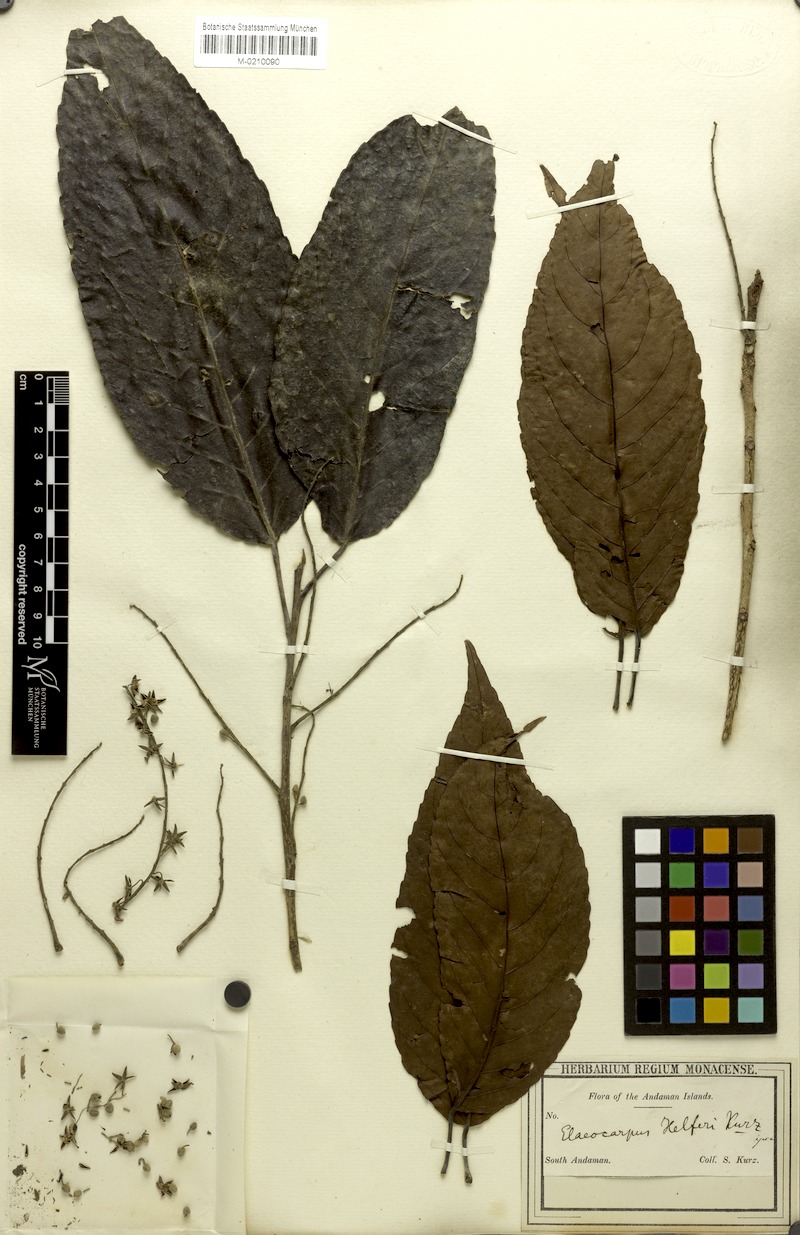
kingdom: Plantae
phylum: Tracheophyta
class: Magnoliopsida
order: Oxalidales
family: Elaeocarpaceae
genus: Elaeocarpus
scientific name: Elaeocarpus stipularis
